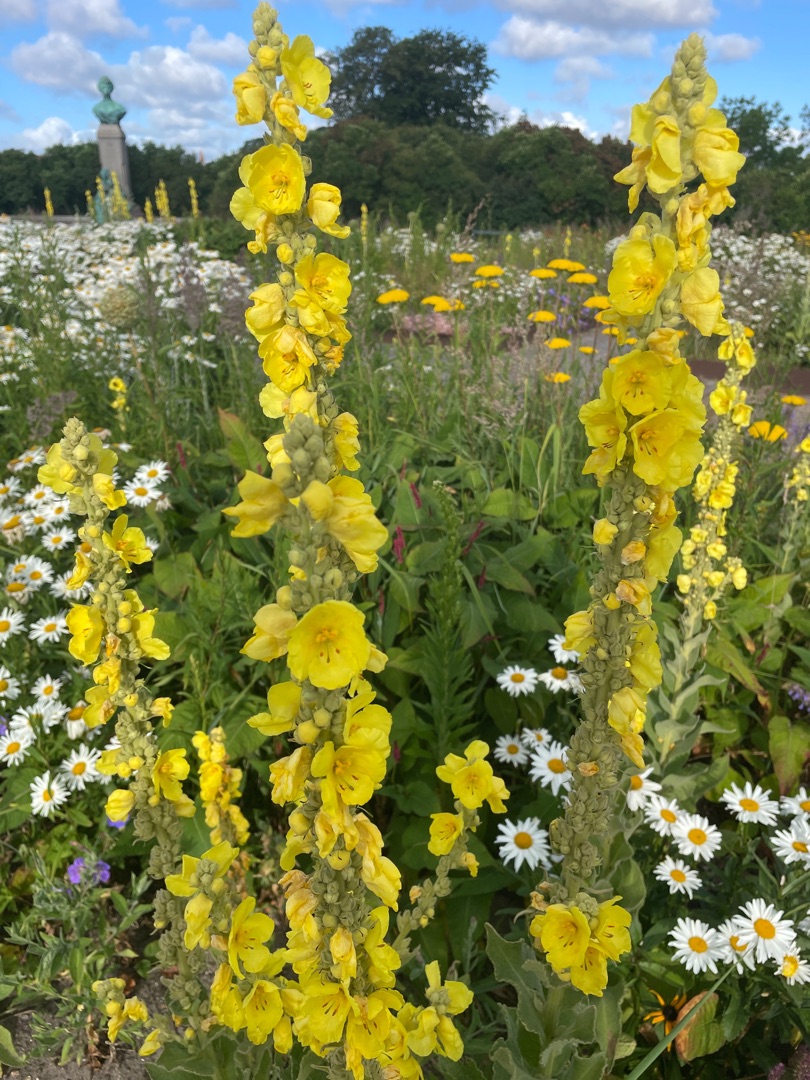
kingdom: Plantae
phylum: Tracheophyta
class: Magnoliopsida
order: Lamiales
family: Scrophulariaceae
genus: Verbascum
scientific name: Verbascum densiflorum
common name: Uldbladet kongelys
